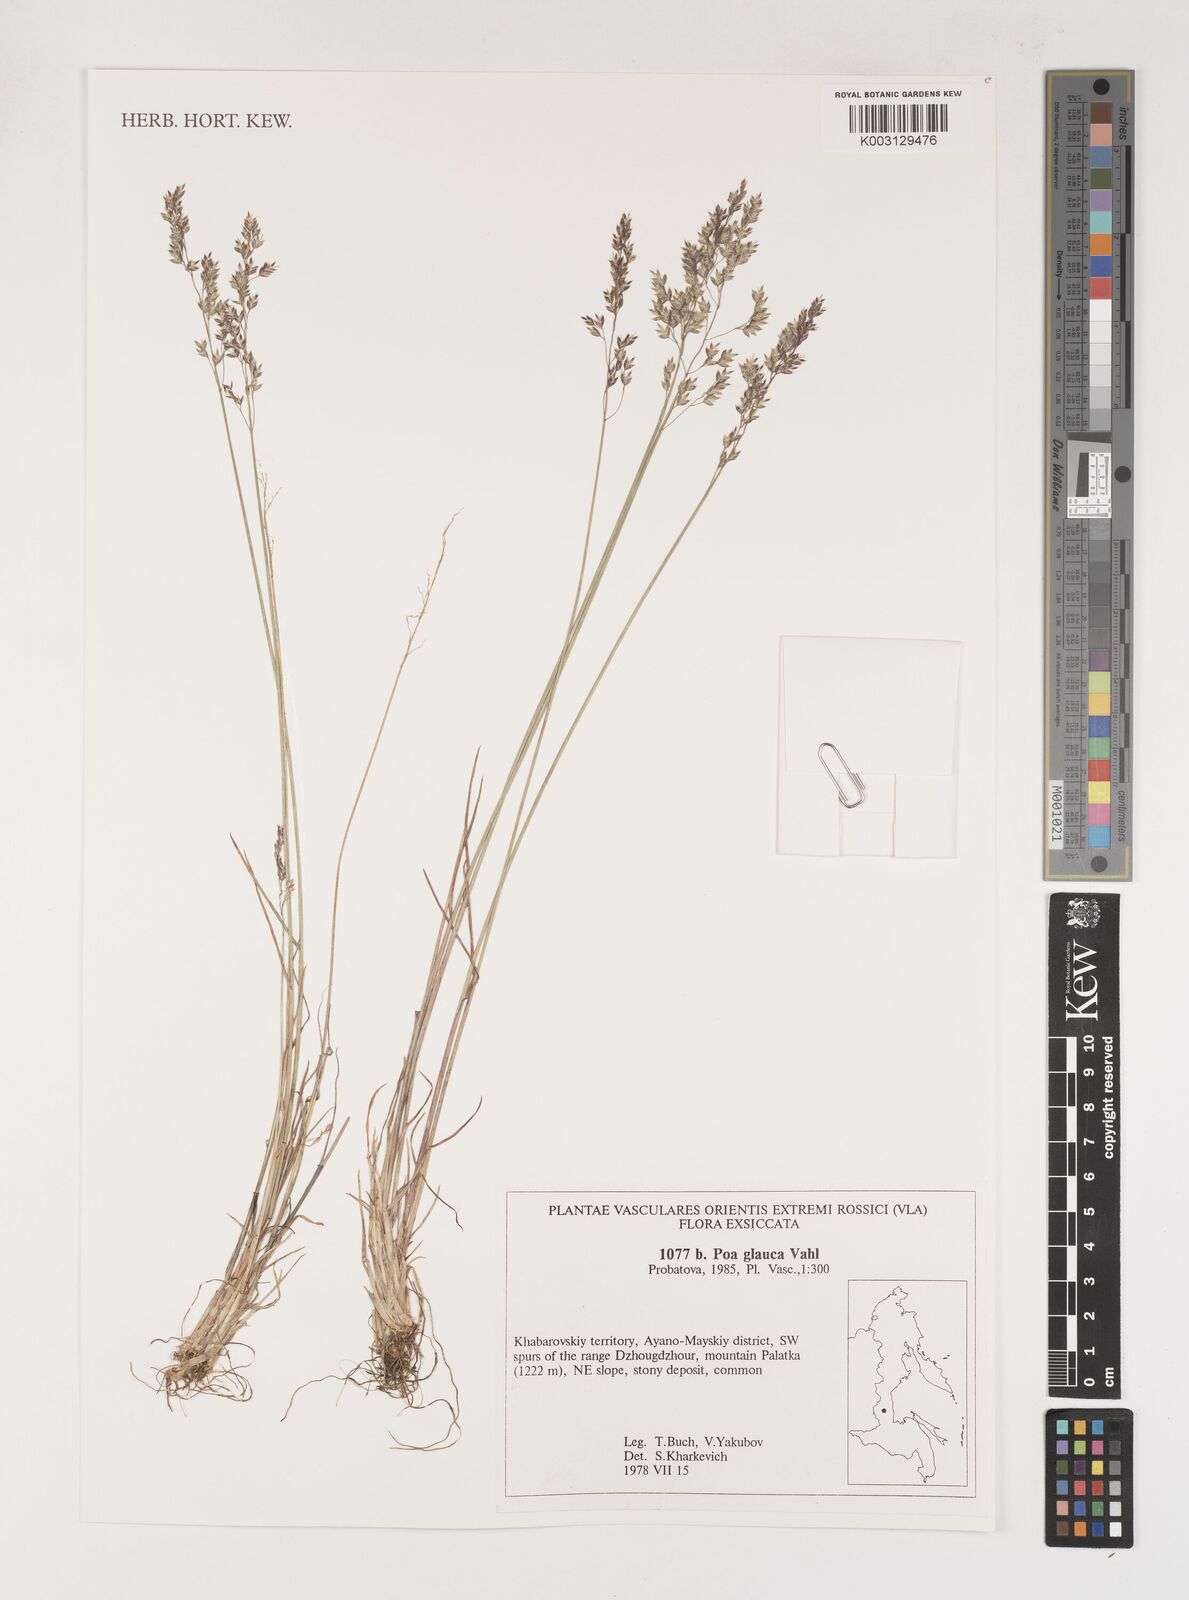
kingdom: Plantae
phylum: Tracheophyta
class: Liliopsida
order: Poales
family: Poaceae
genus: Poa
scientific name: Poa glauca
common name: Glaucous bluegrass
